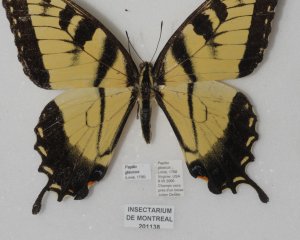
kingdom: Animalia
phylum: Arthropoda
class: Insecta
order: Lepidoptera
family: Papilionidae
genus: Pterourus
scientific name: Pterourus glaucus
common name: Eastern Tiger Swallowtail
